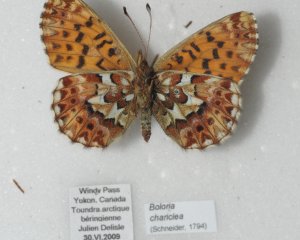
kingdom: Animalia
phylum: Arthropoda
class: Insecta
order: Lepidoptera
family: Nymphalidae
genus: Boloria
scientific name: Boloria chariclea
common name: Arctic Fritillary
